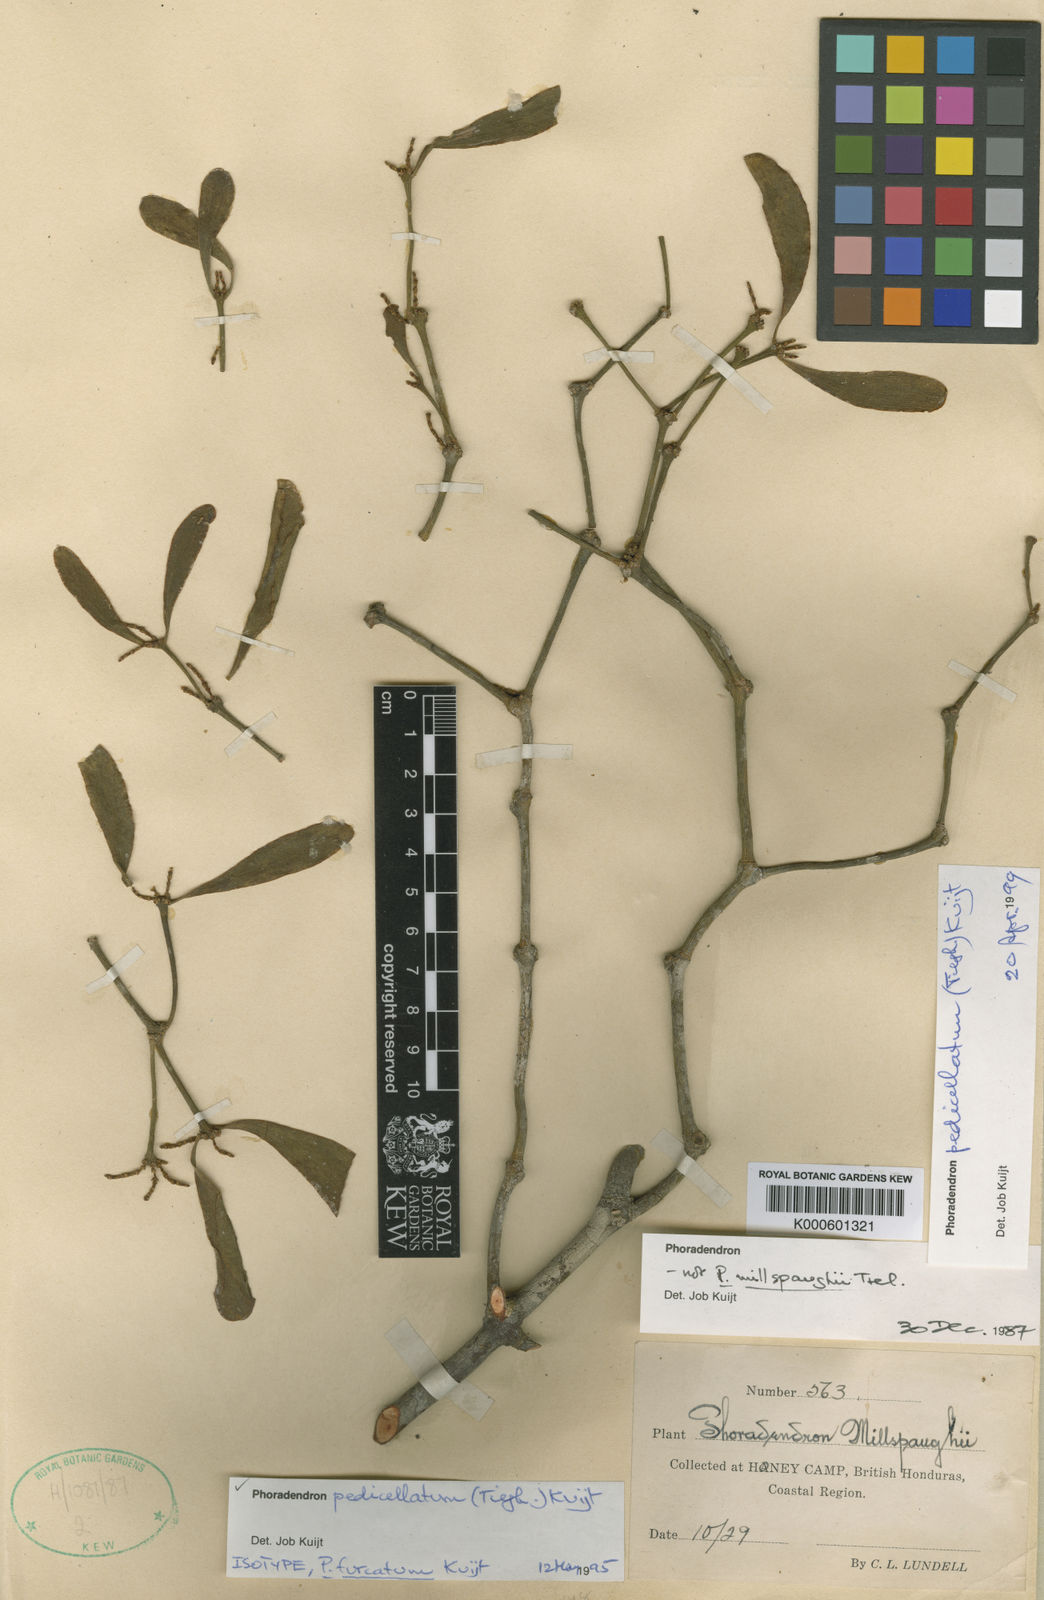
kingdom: Plantae
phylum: Tracheophyta
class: Magnoliopsida
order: Santalales
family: Viscaceae
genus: Phoradendron
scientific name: Phoradendron pedicellatum
